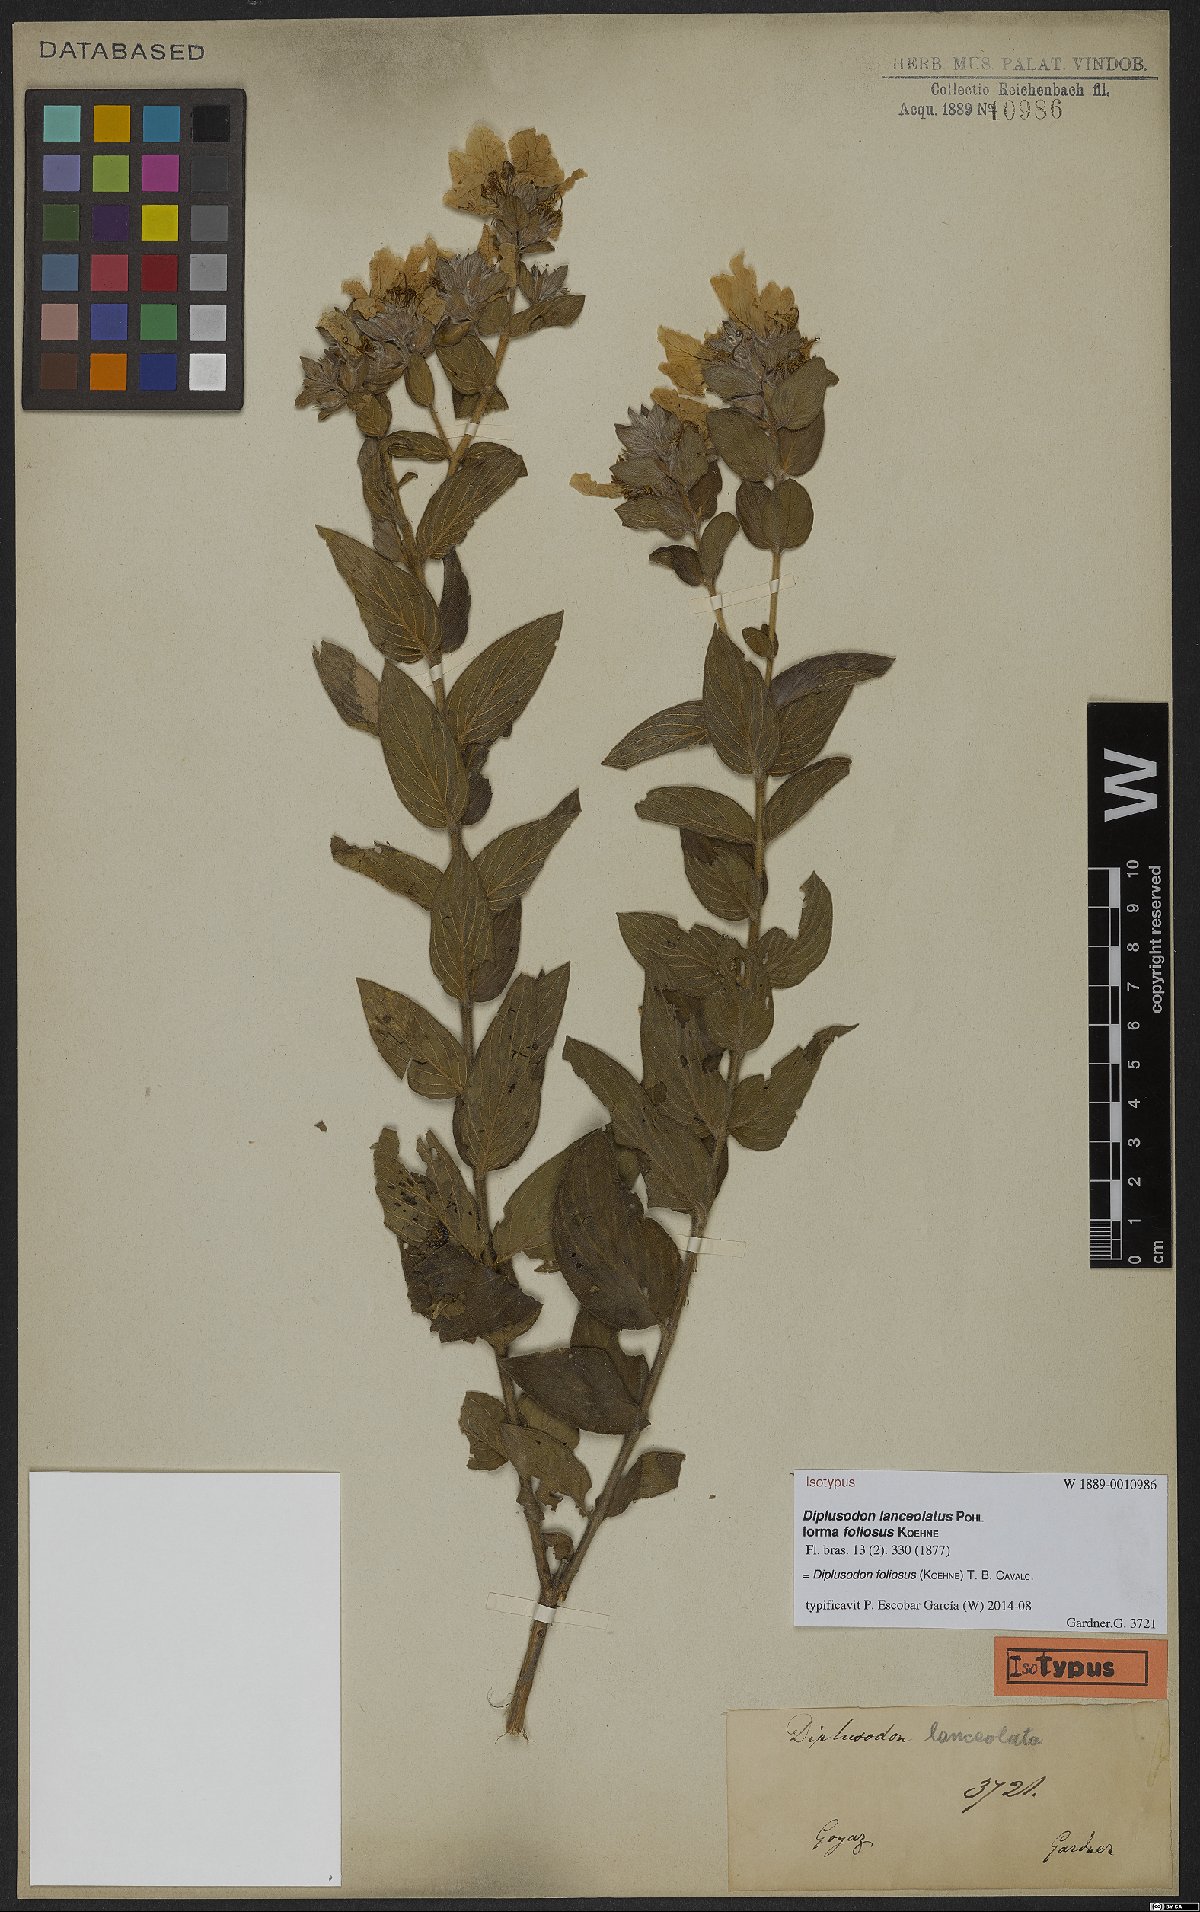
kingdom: Plantae
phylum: Tracheophyta
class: Magnoliopsida
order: Myrtales
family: Lythraceae
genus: Diplusodon
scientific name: Diplusodon paraisoensis
